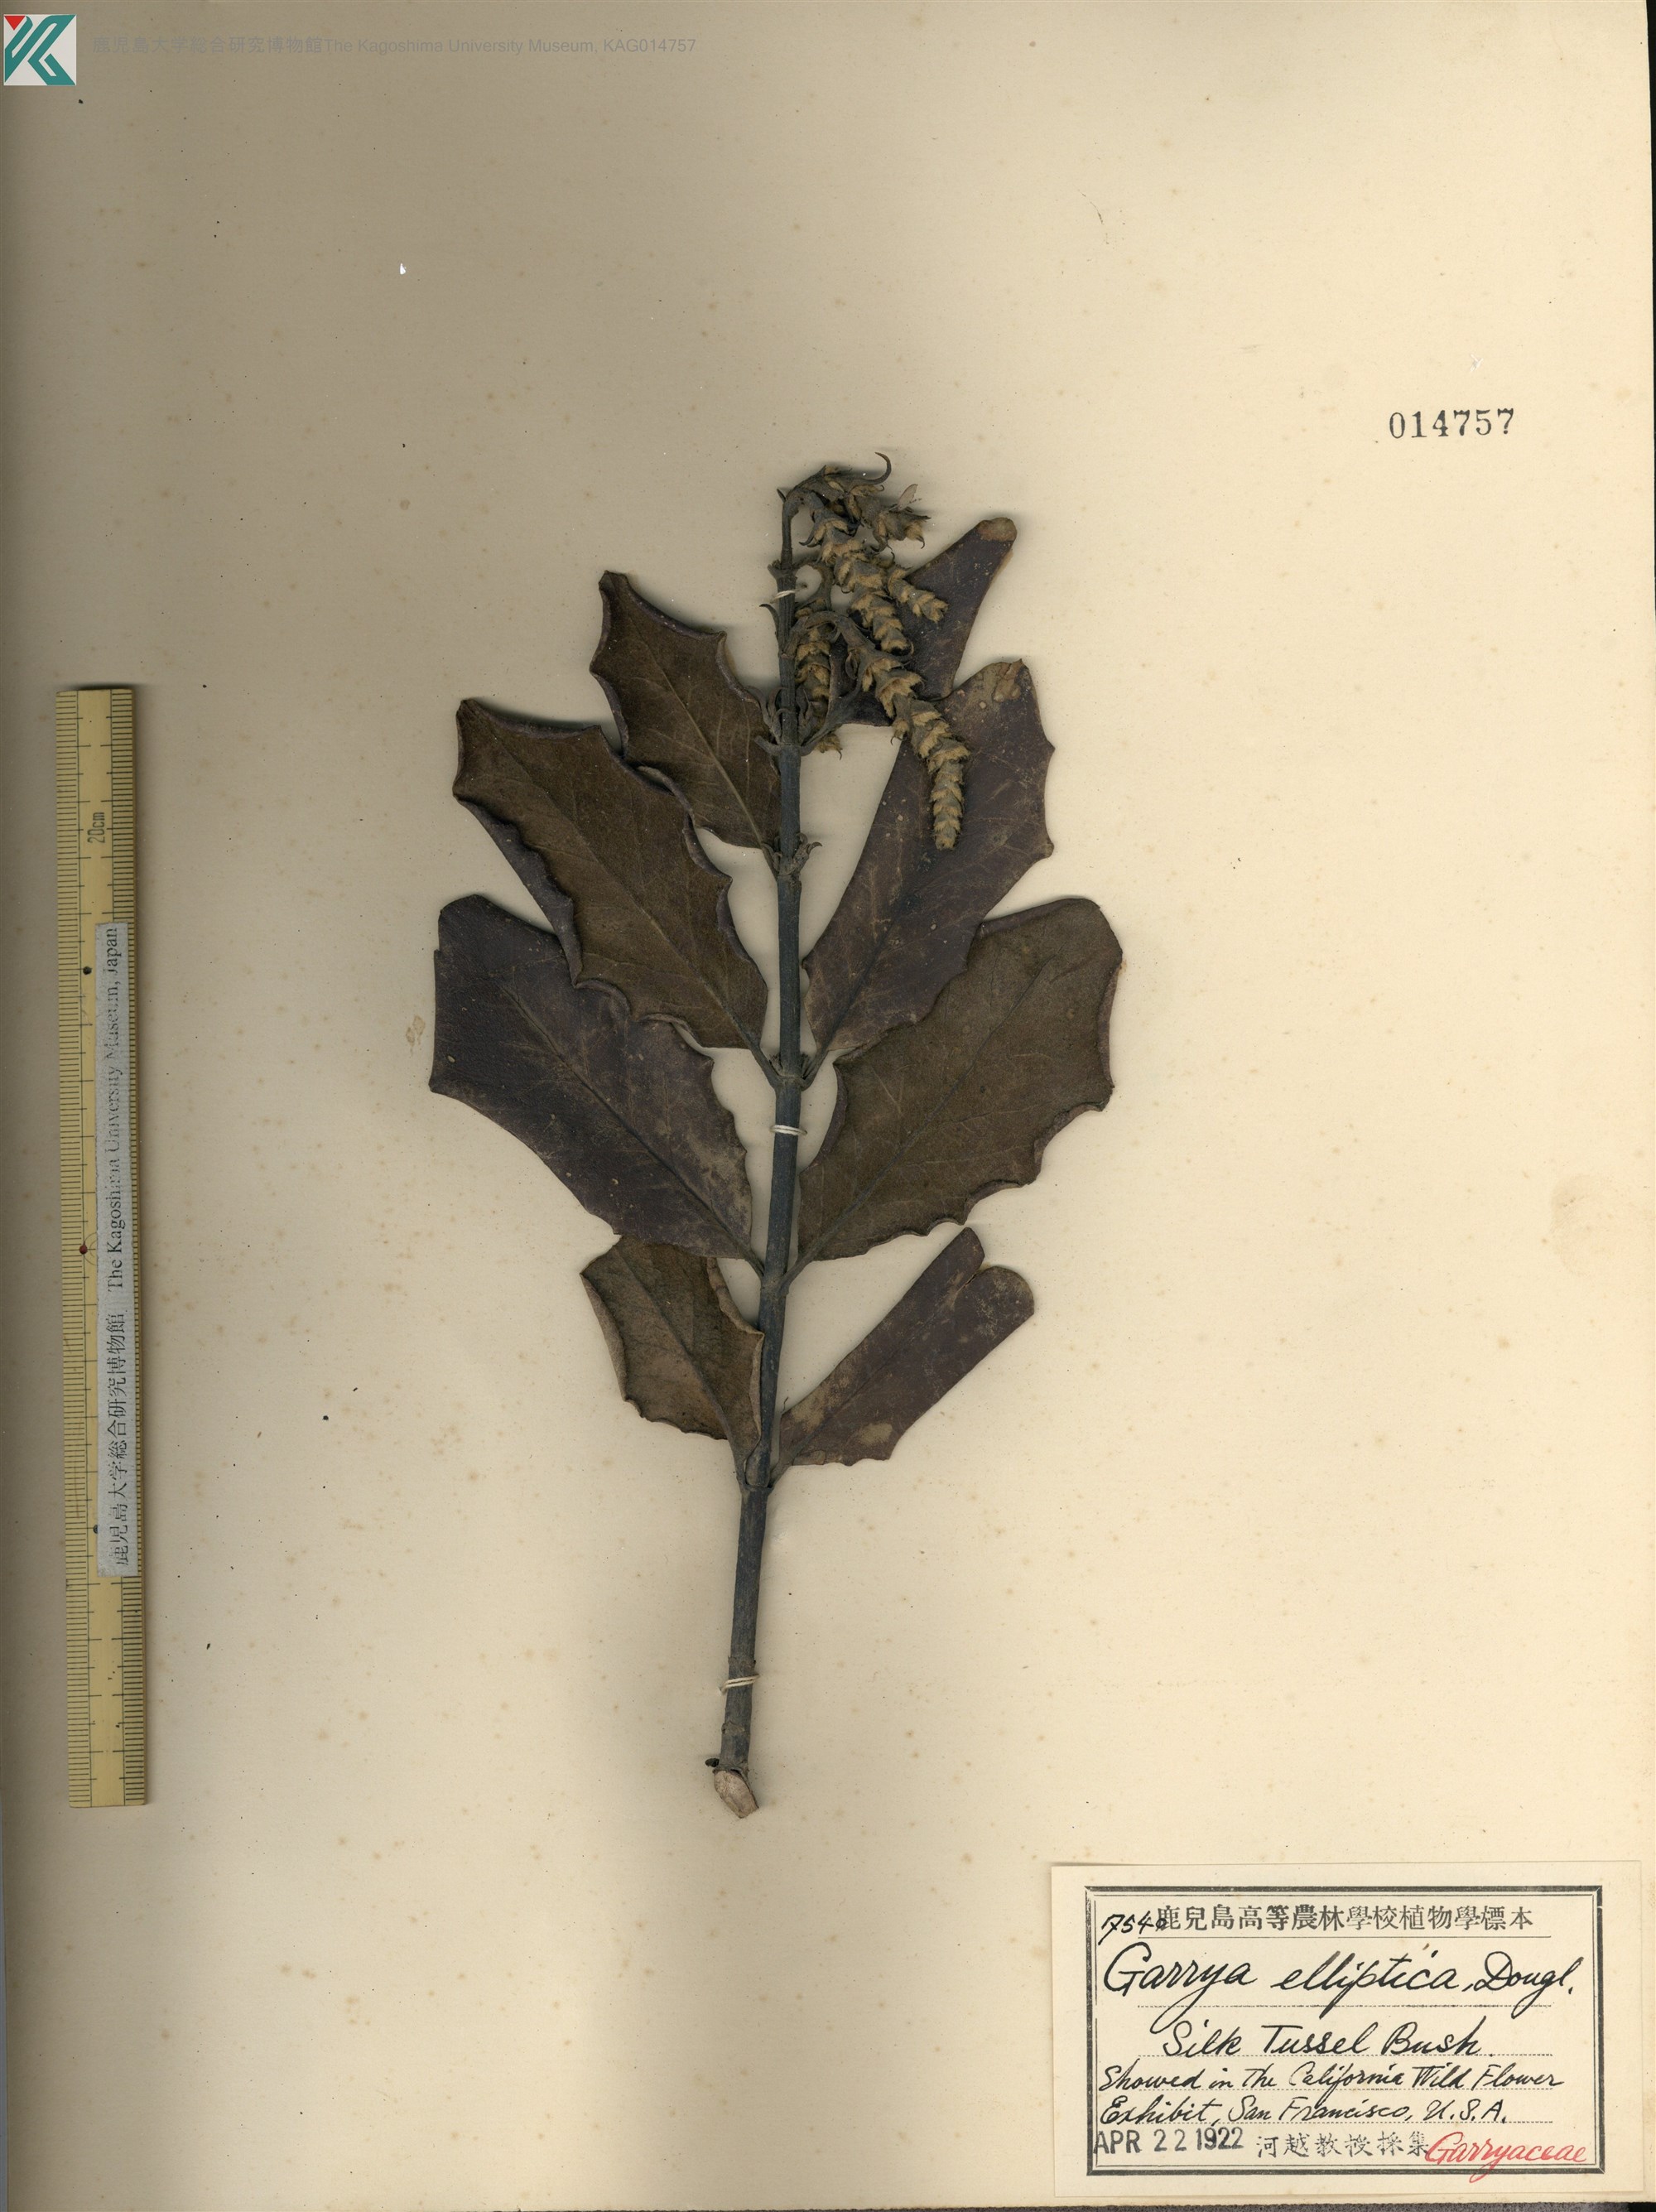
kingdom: Plantae
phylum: Tracheophyta
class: Magnoliopsida
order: Garryales
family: Garryaceae
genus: Garrya
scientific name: Garrya elliptica
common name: Silk-tassel
